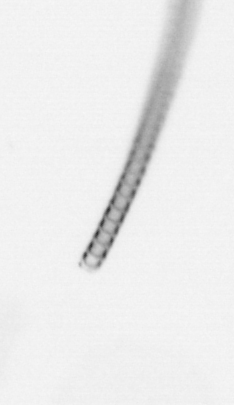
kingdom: Chromista
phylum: Ochrophyta
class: Bacillariophyceae
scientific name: Bacillariophyceae
